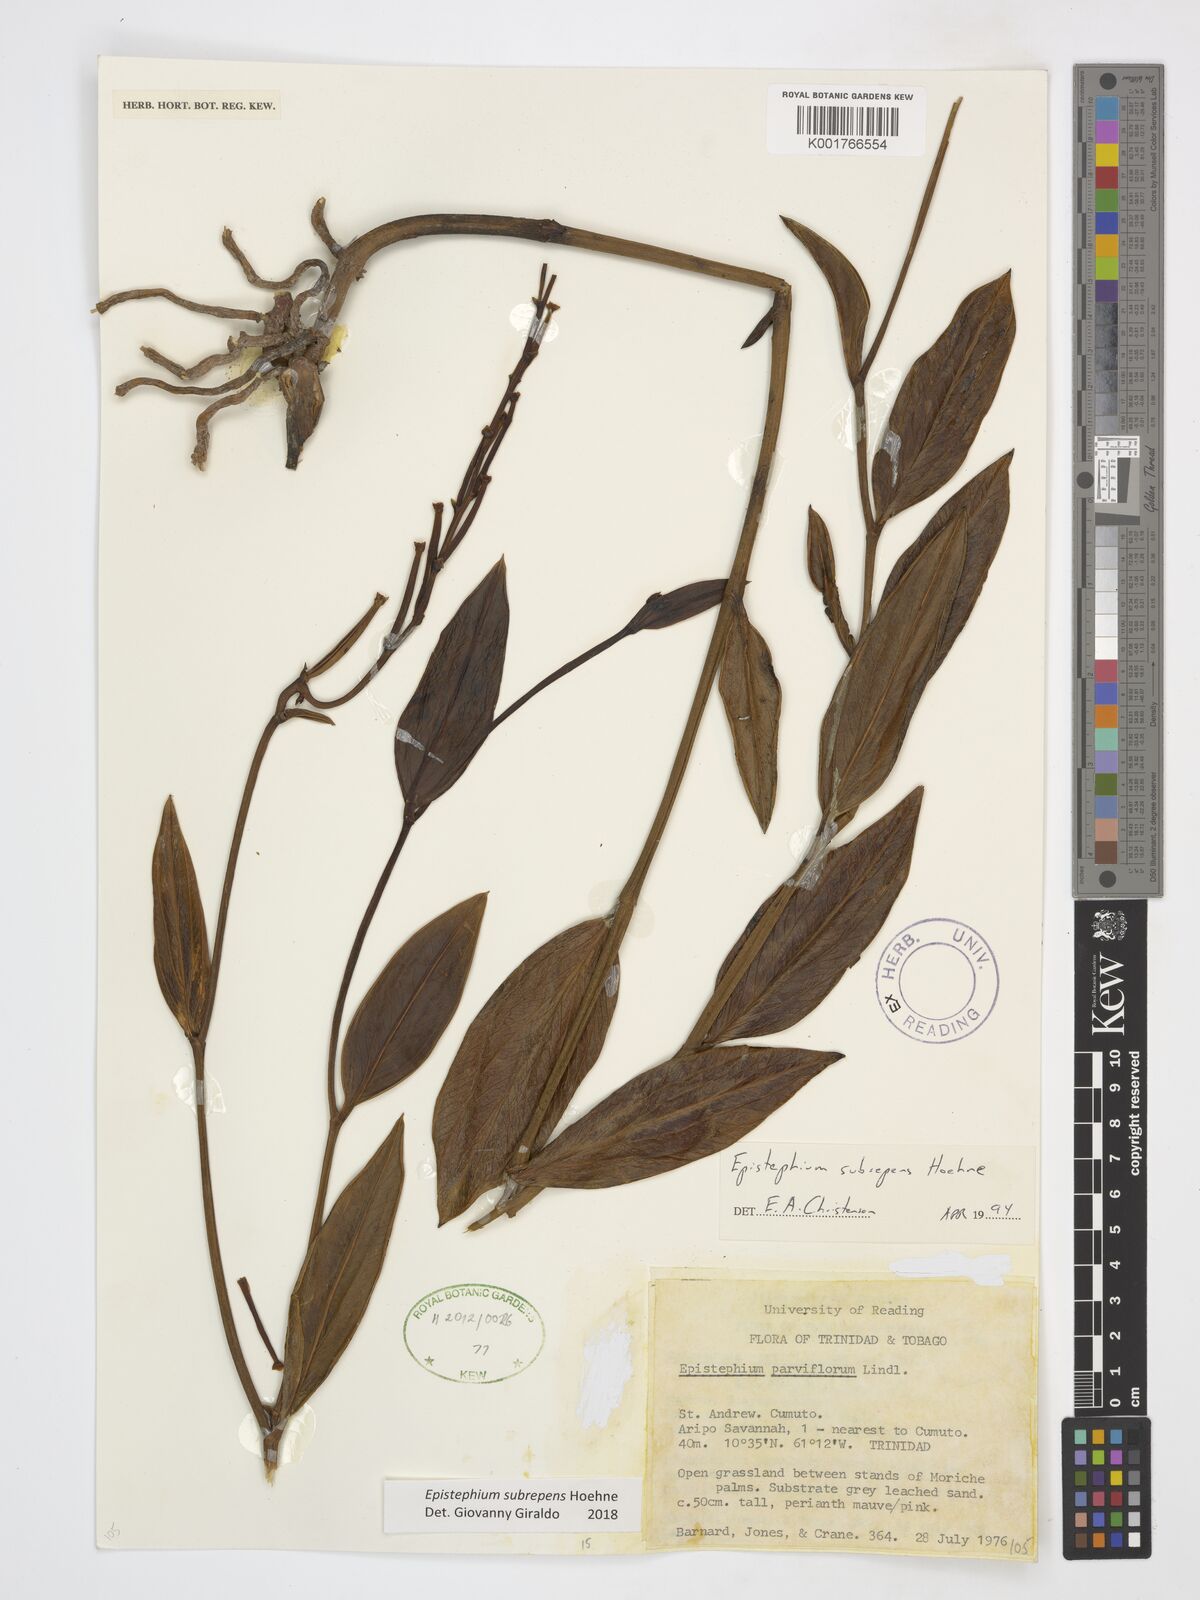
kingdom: Plantae
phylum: Tracheophyta
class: Liliopsida
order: Asparagales
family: Orchidaceae
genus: Epistephium
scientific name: Epistephium subrepens
